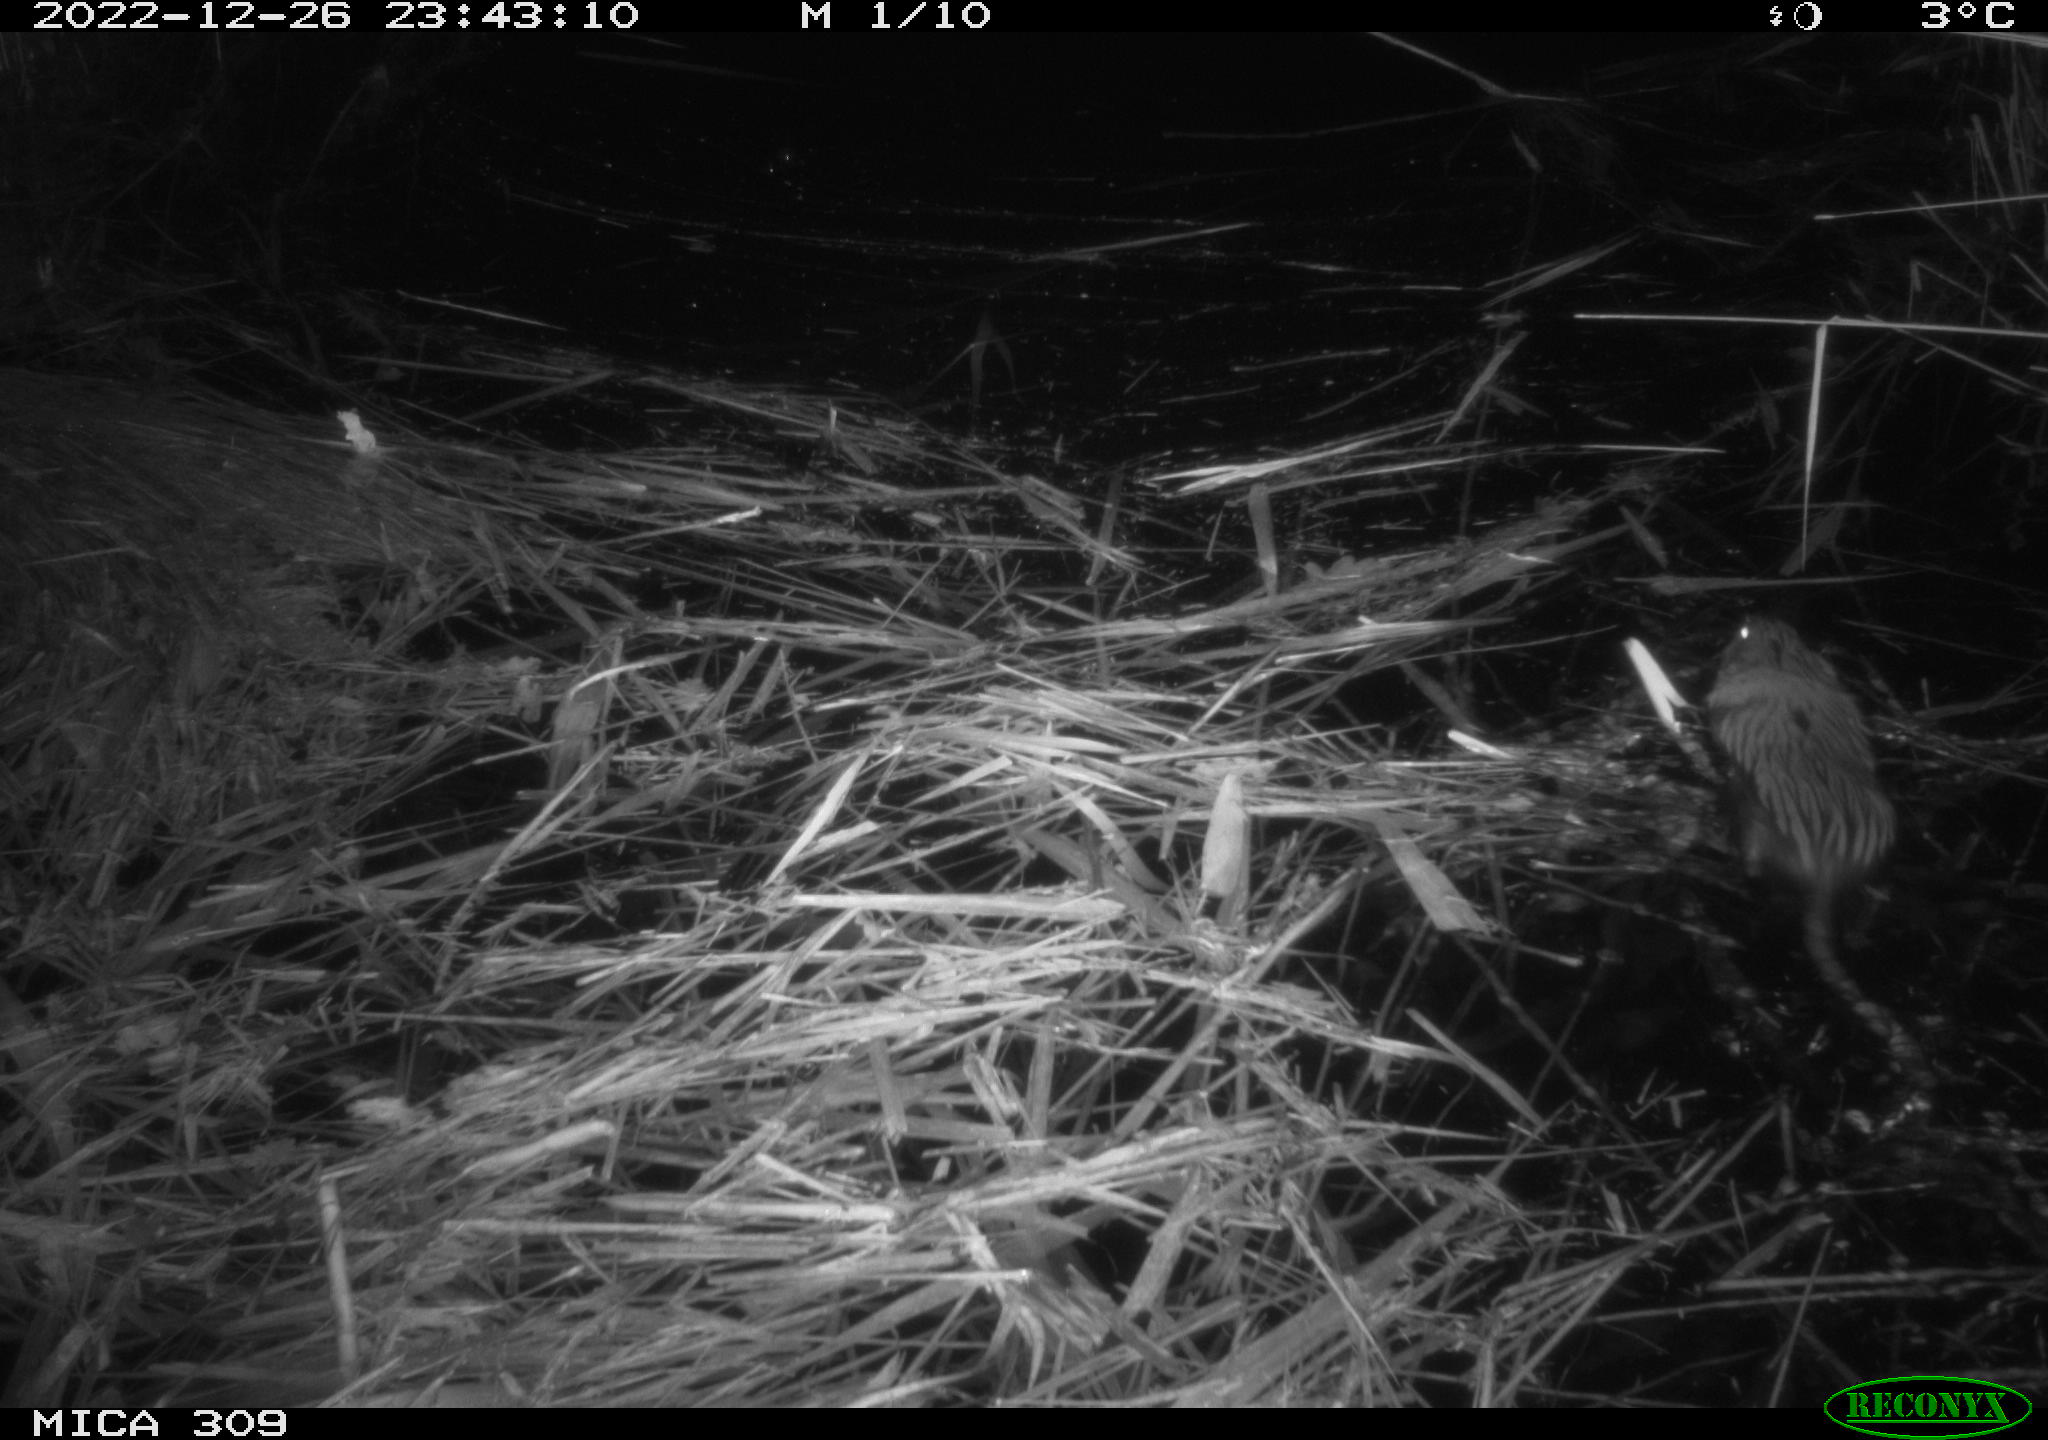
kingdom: Animalia
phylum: Chordata
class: Mammalia
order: Rodentia
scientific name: Rodentia
